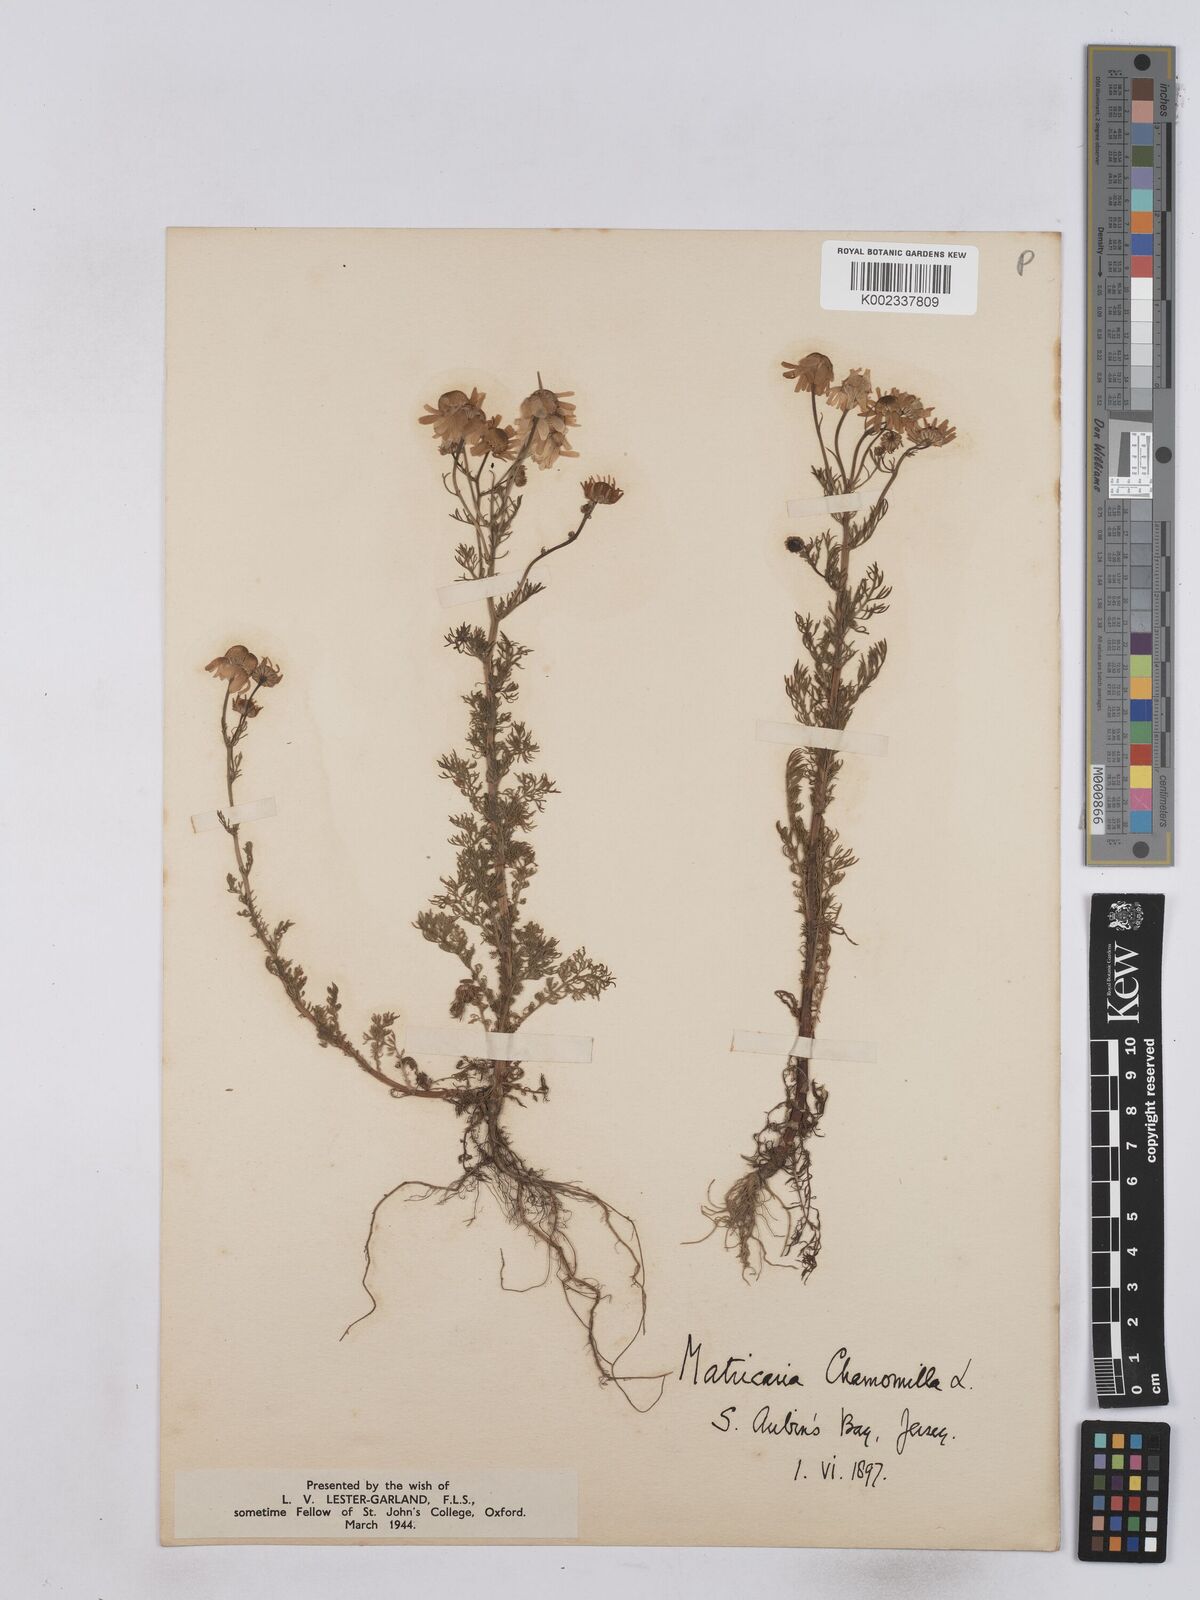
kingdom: Plantae
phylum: Tracheophyta
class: Magnoliopsida
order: Asterales
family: Asteraceae
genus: Matricaria
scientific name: Matricaria chamomilla
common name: Scented mayweed
